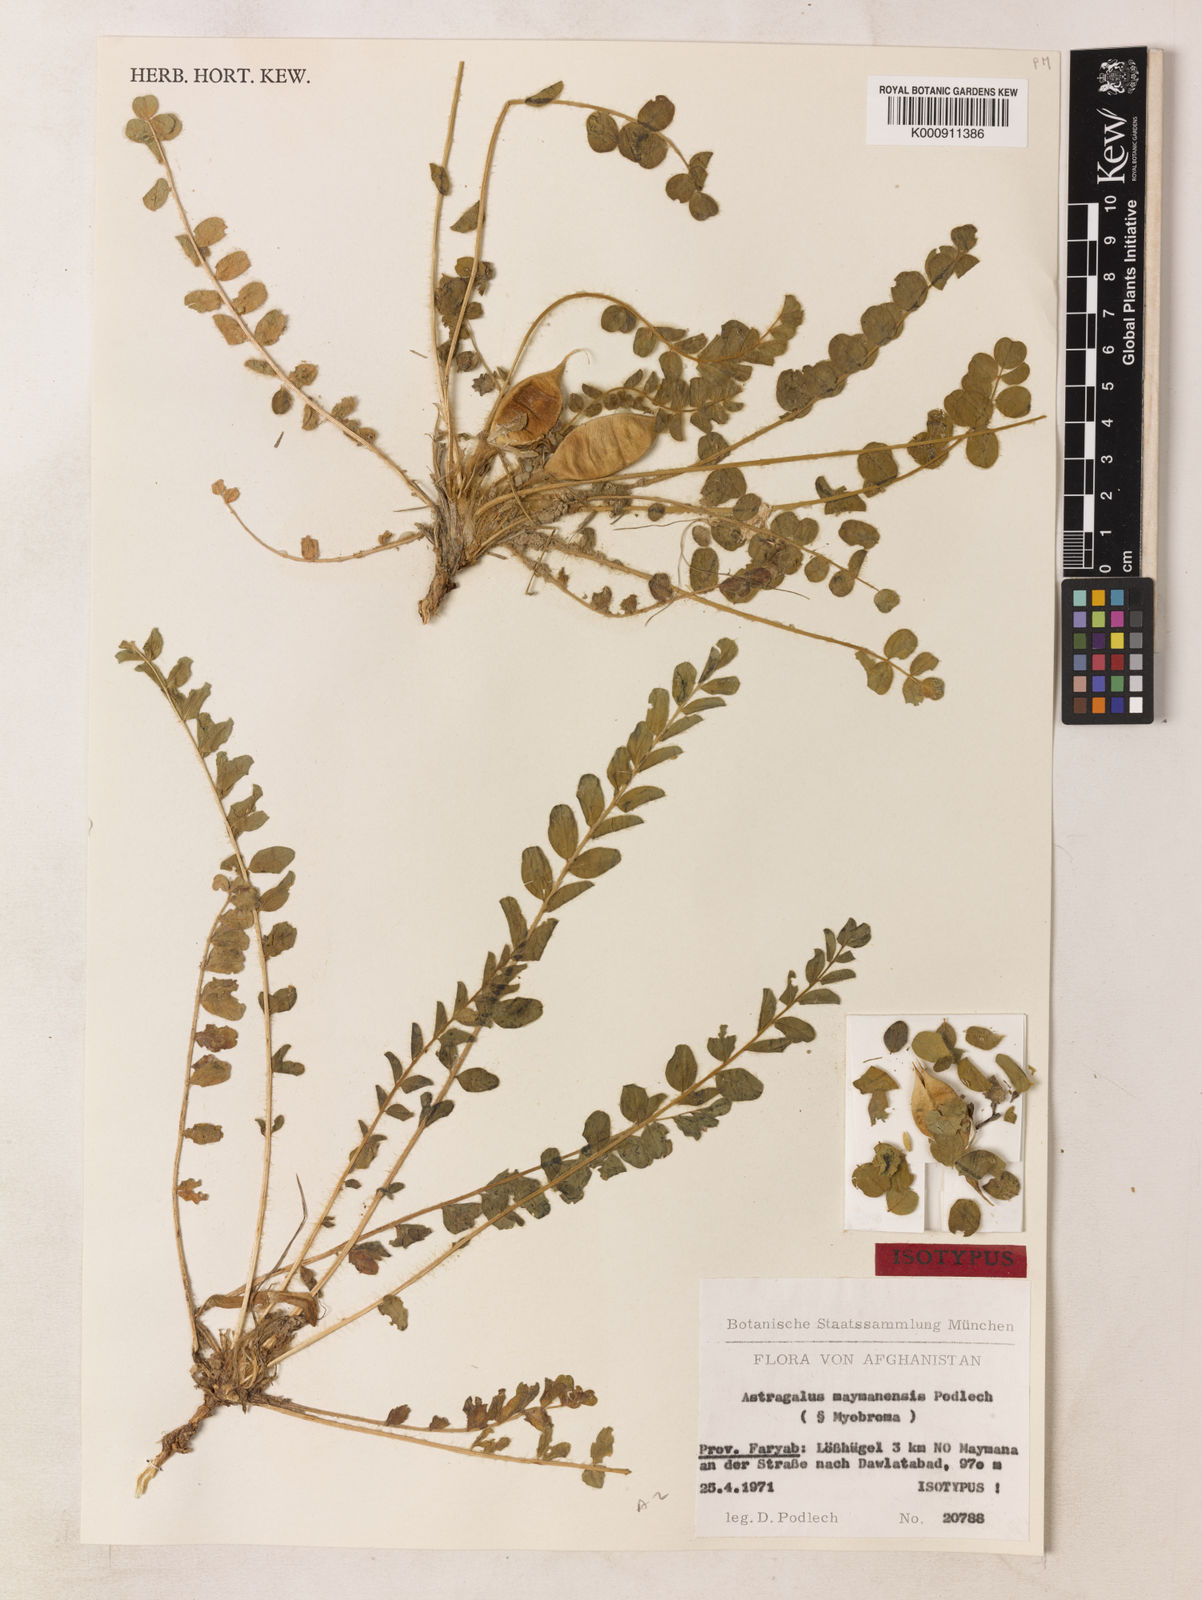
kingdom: Plantae
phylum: Tracheophyta
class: Magnoliopsida
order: Fabales
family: Fabaceae
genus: Astragalus
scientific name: Astragalus nephtonensis
